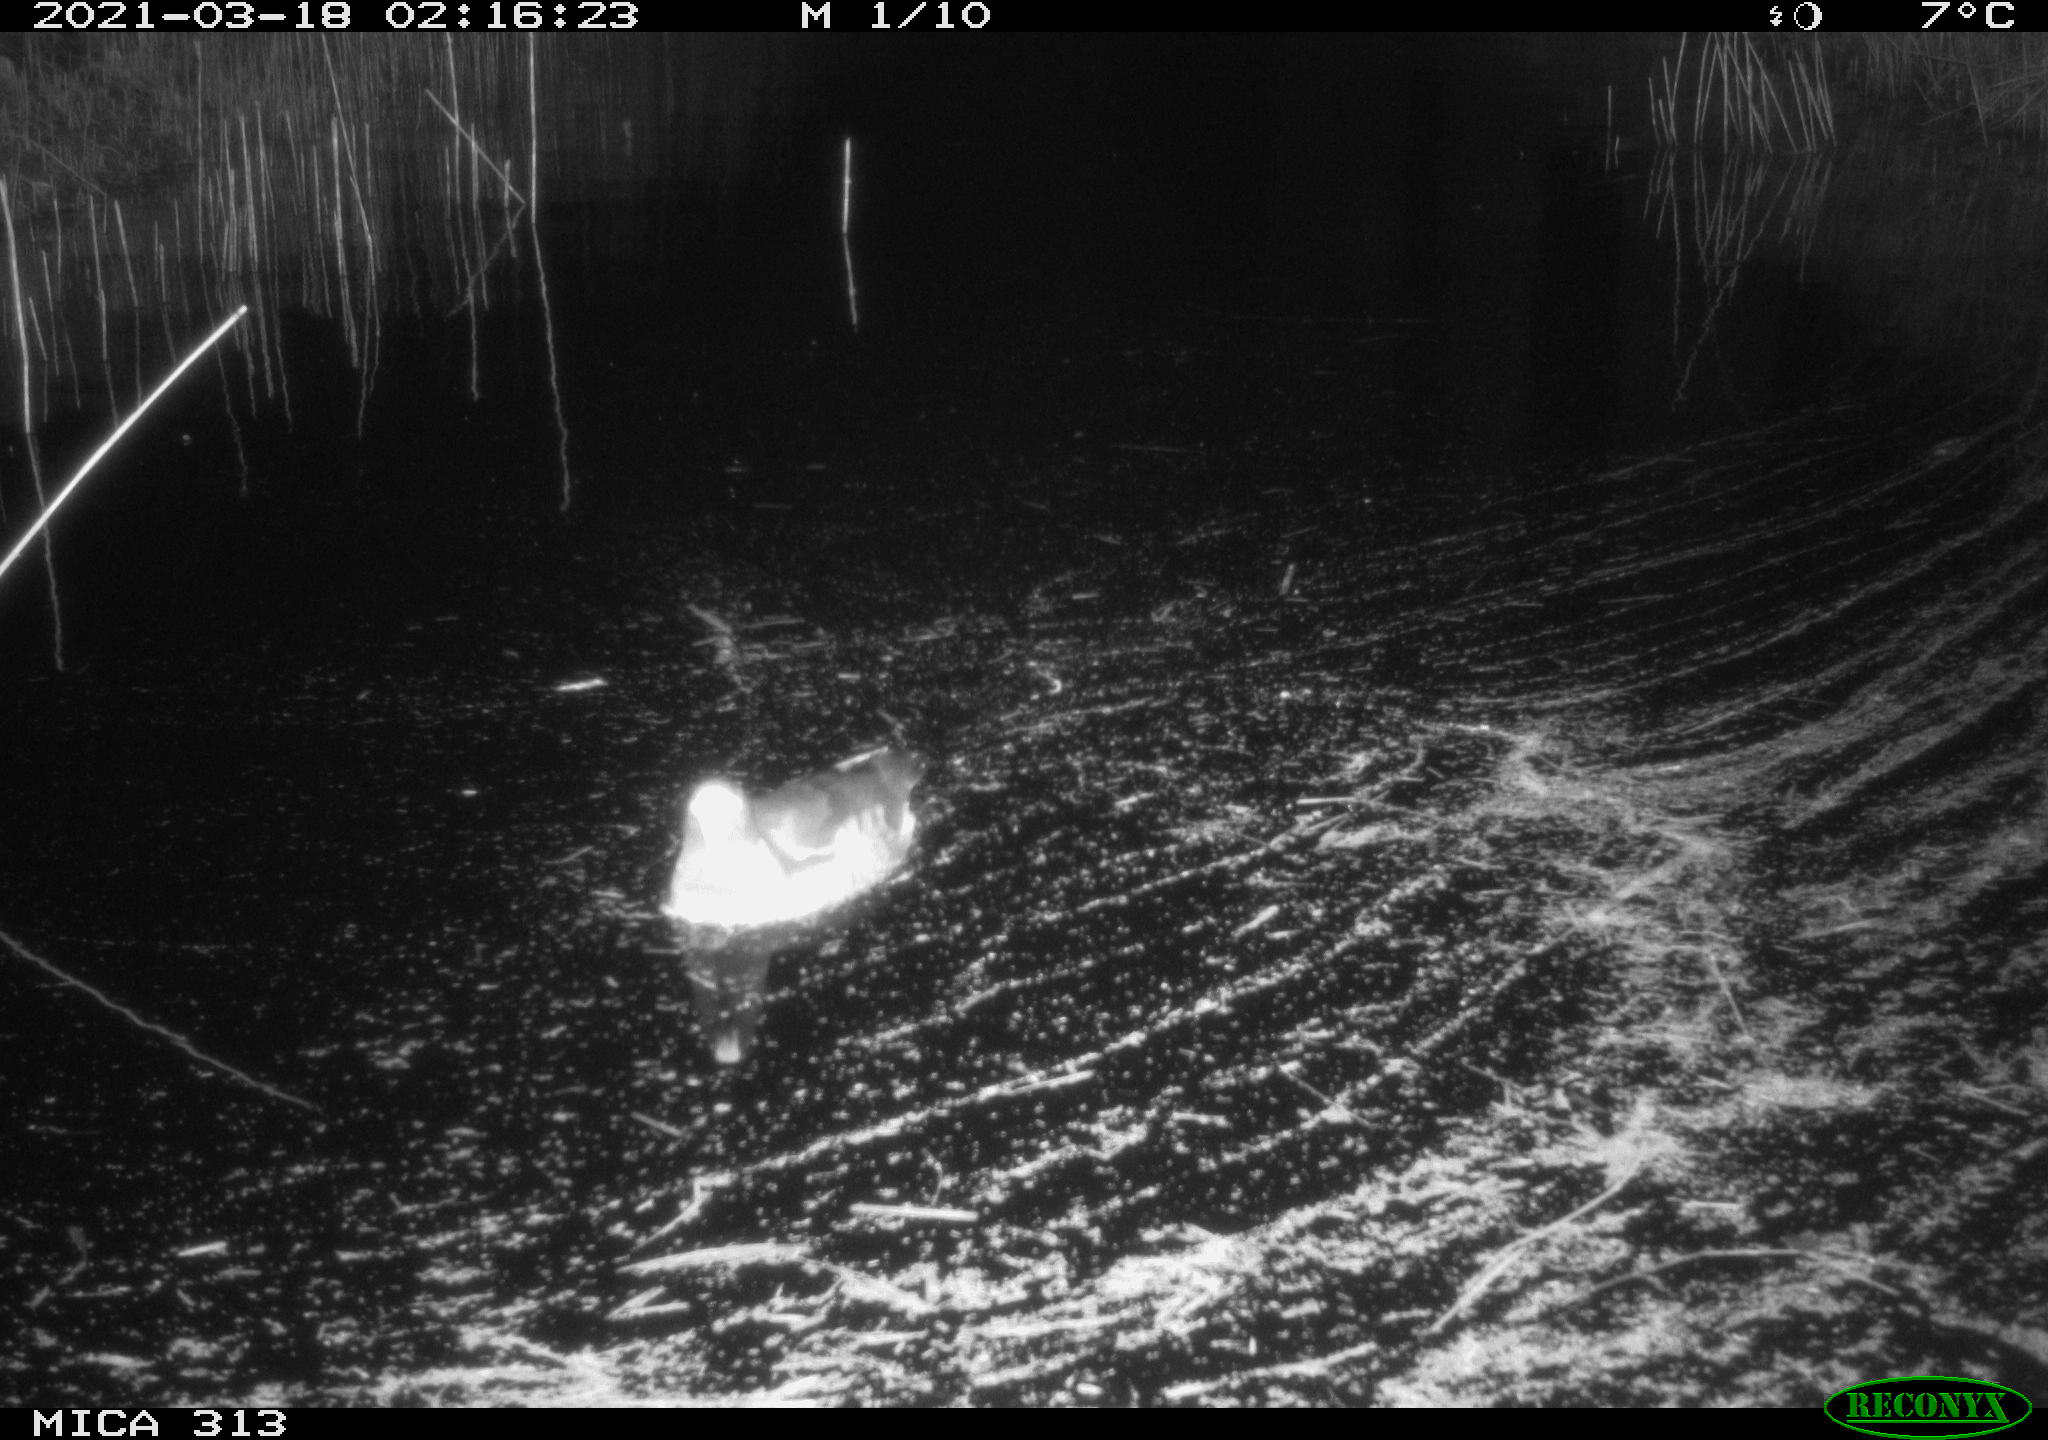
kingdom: Animalia
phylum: Chordata
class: Aves
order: Gruiformes
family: Rallidae
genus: Gallinula
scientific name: Gallinula chloropus
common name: Common moorhen
